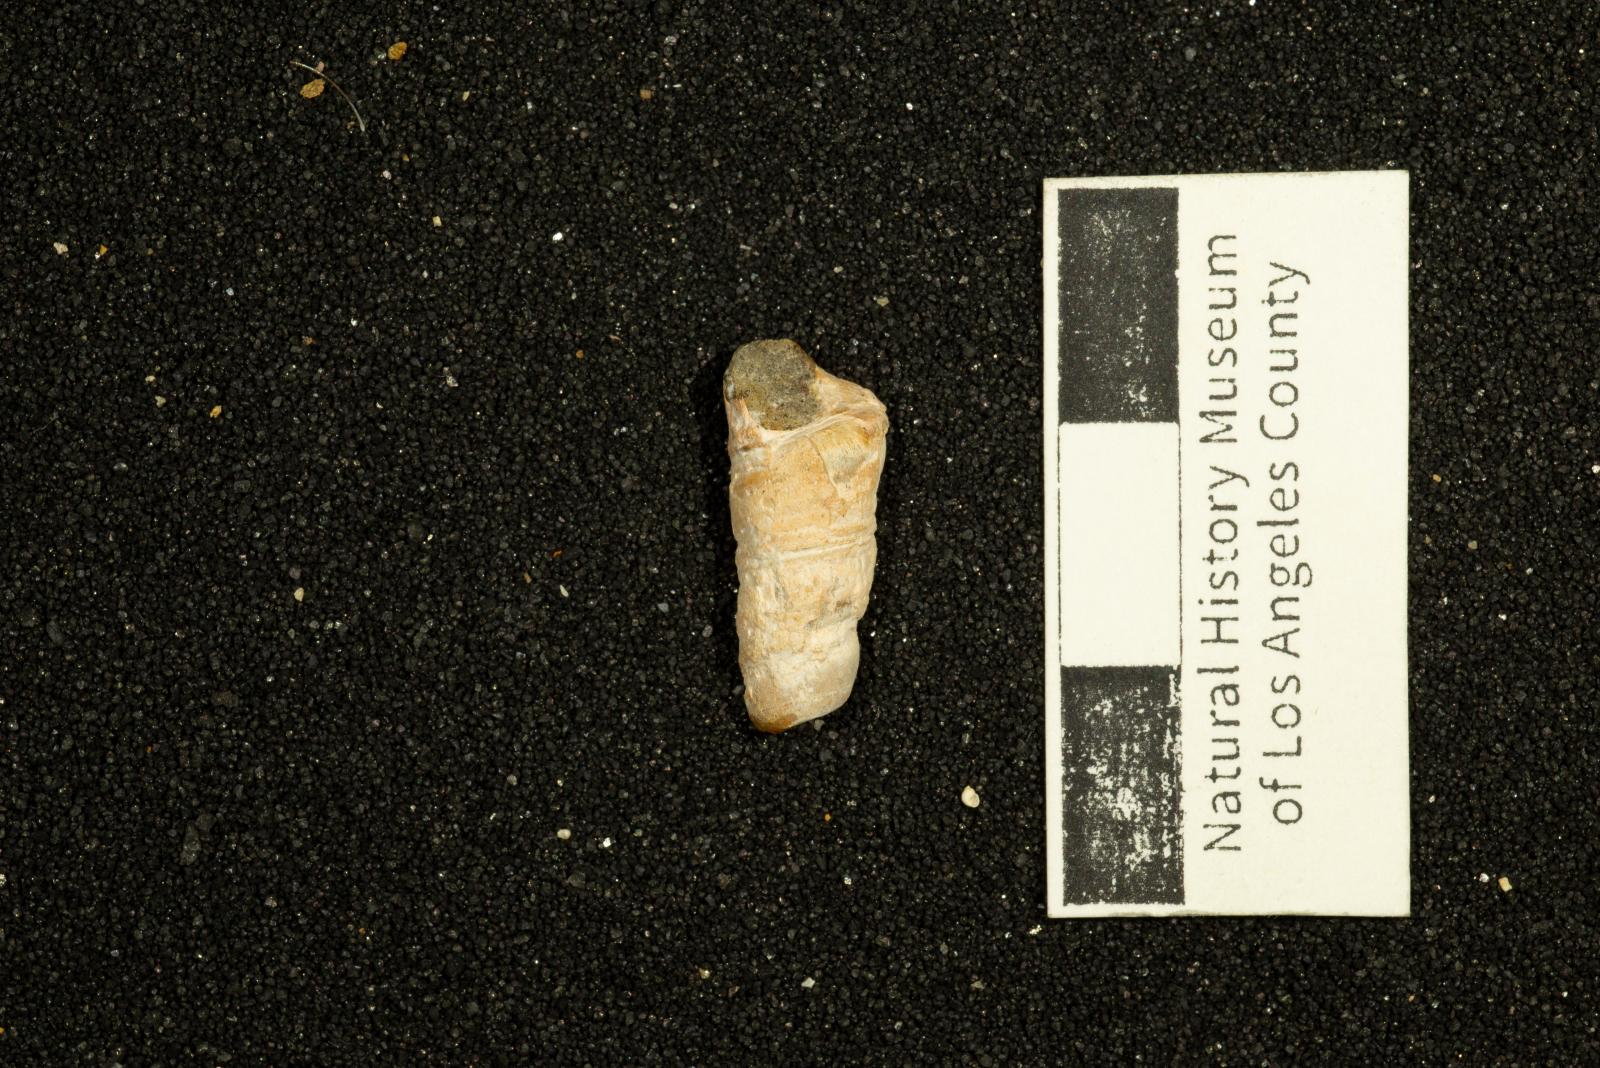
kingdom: Animalia
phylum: Mollusca
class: Gastropoda
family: Turritellidae
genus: Turritella
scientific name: Turritella encina
